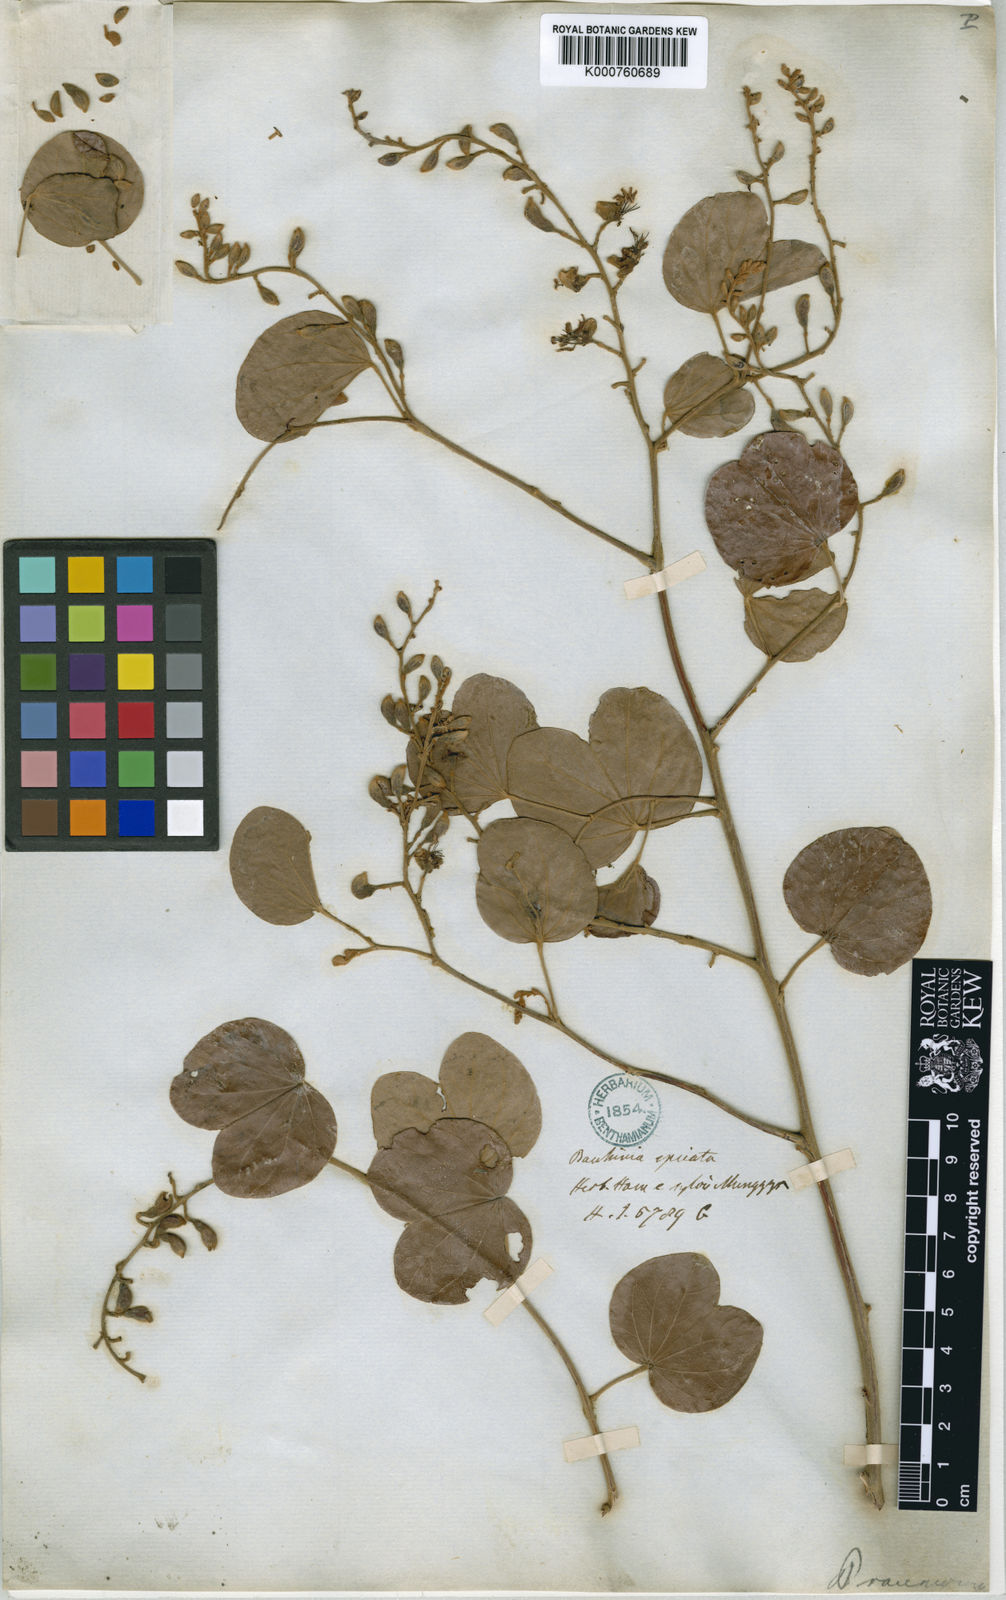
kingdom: Plantae
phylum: Tracheophyta
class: Magnoliopsida
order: Fabales
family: Fabaceae
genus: Bauhinia
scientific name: Bauhinia racemosa
